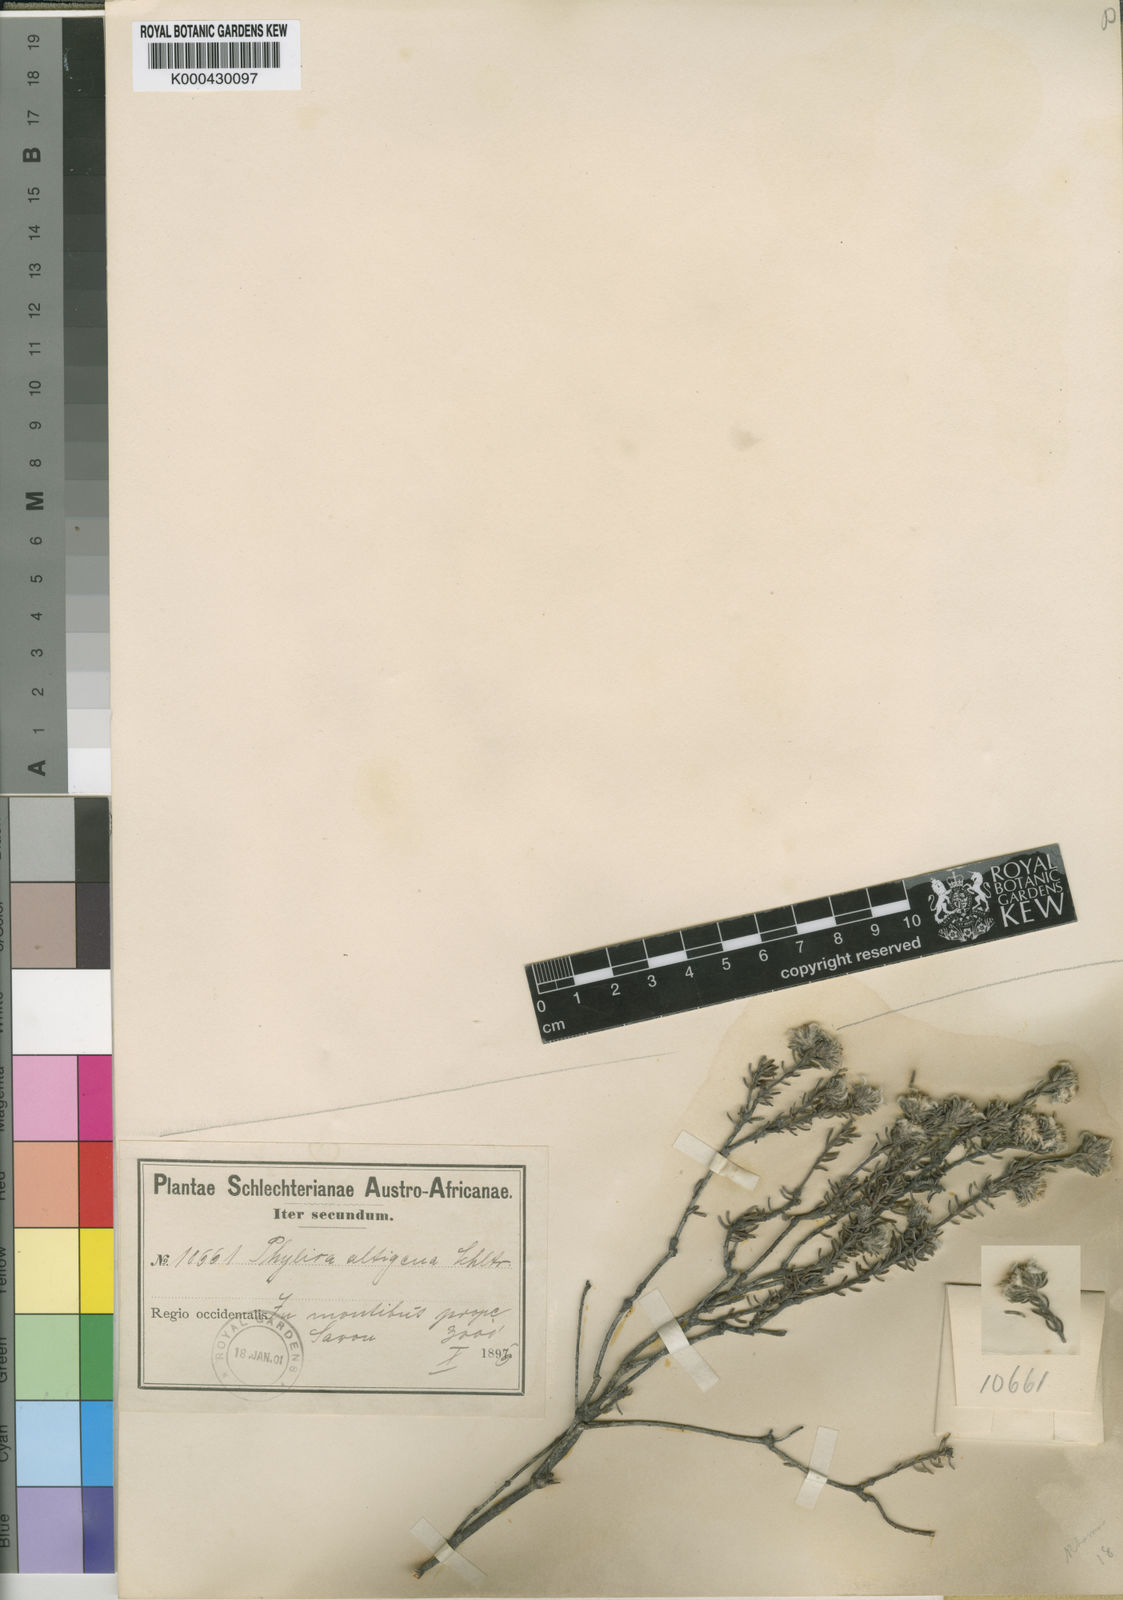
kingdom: Plantae
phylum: Tracheophyta
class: Magnoliopsida
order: Rosales
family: Rhamnaceae
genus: Phylica
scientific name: Phylica altigena
